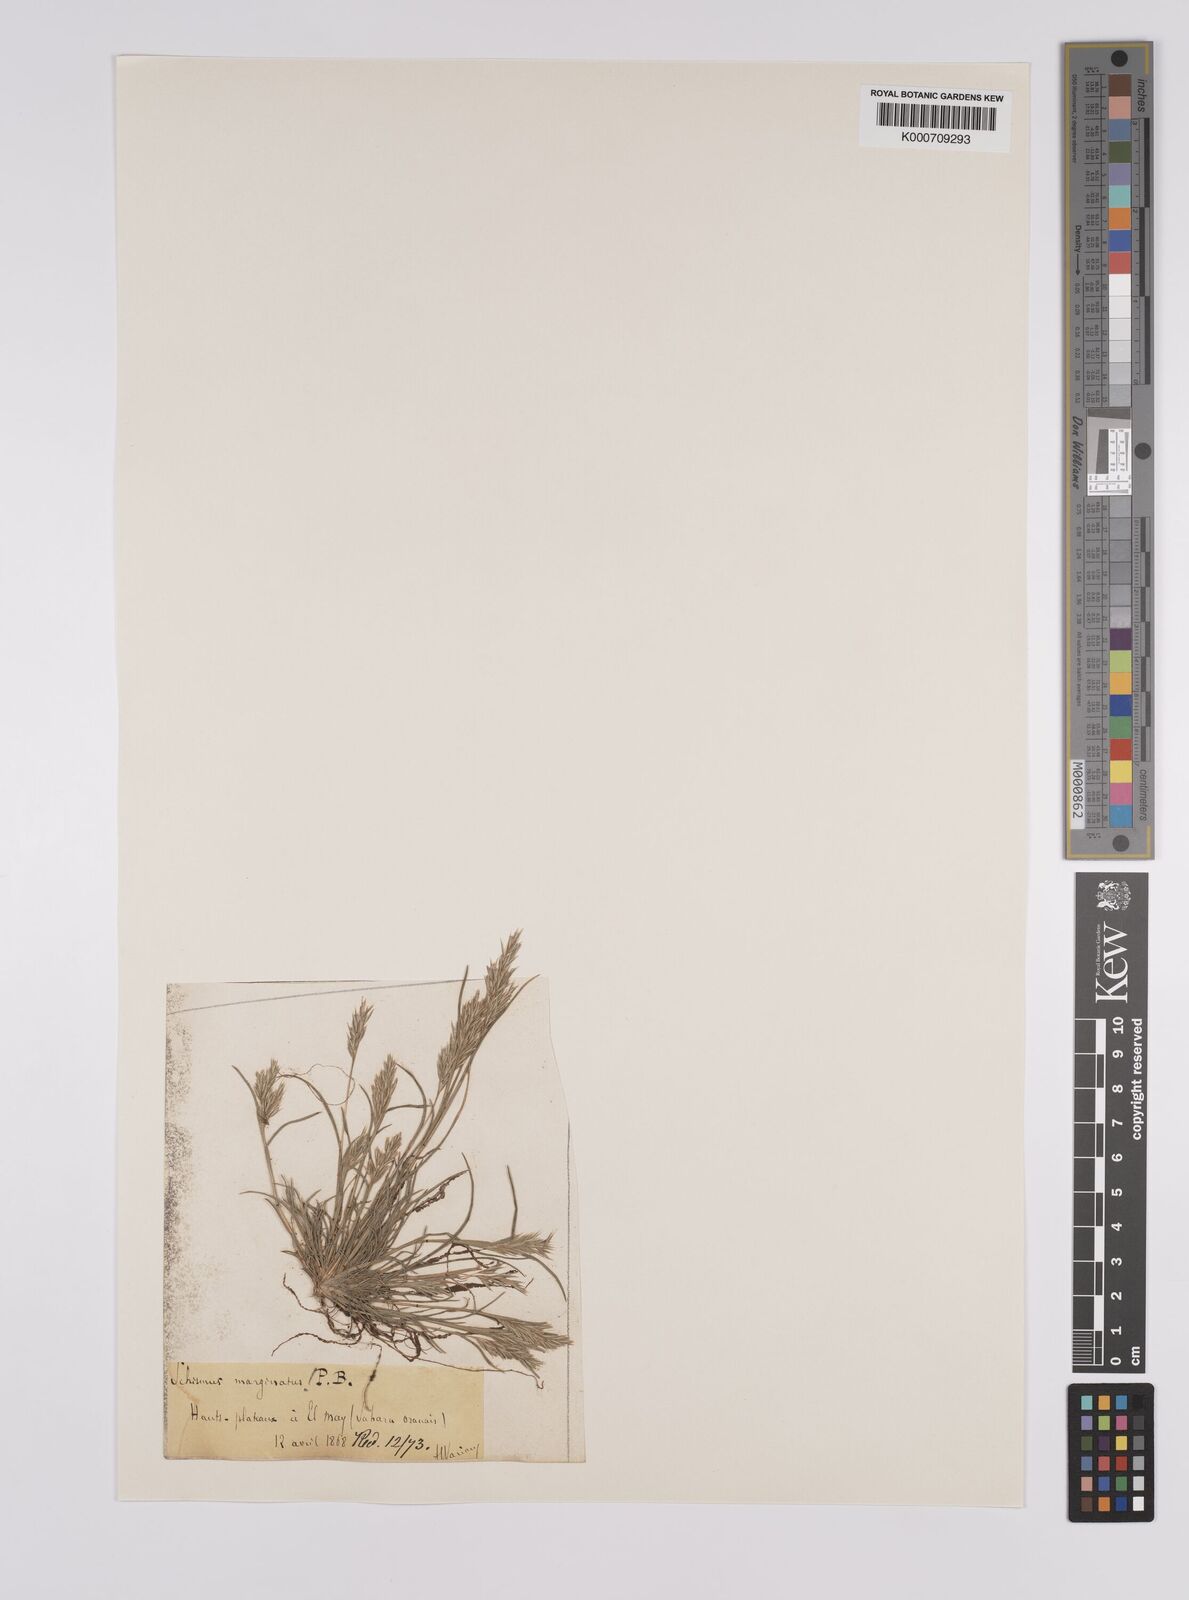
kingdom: Plantae
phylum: Tracheophyta
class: Liliopsida
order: Poales
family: Poaceae
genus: Schismus
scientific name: Schismus barbatus
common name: Kelch-grass
